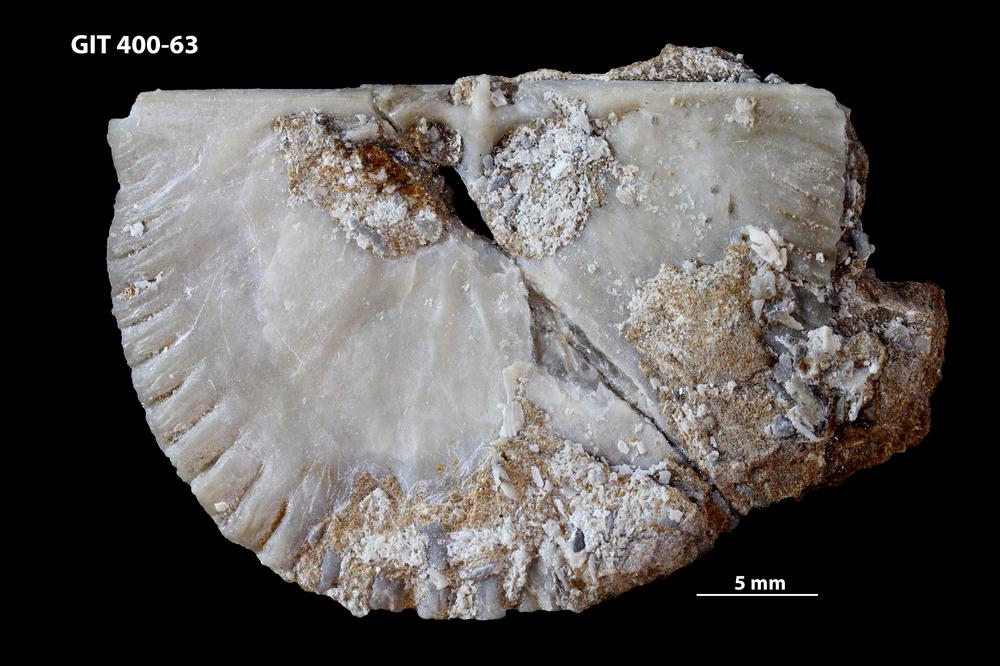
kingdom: Animalia
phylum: Brachiopoda
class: Rhynchonellata
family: Orthidae
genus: Cyrtonotella
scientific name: Cyrtonotella Orthis kuckersiana
